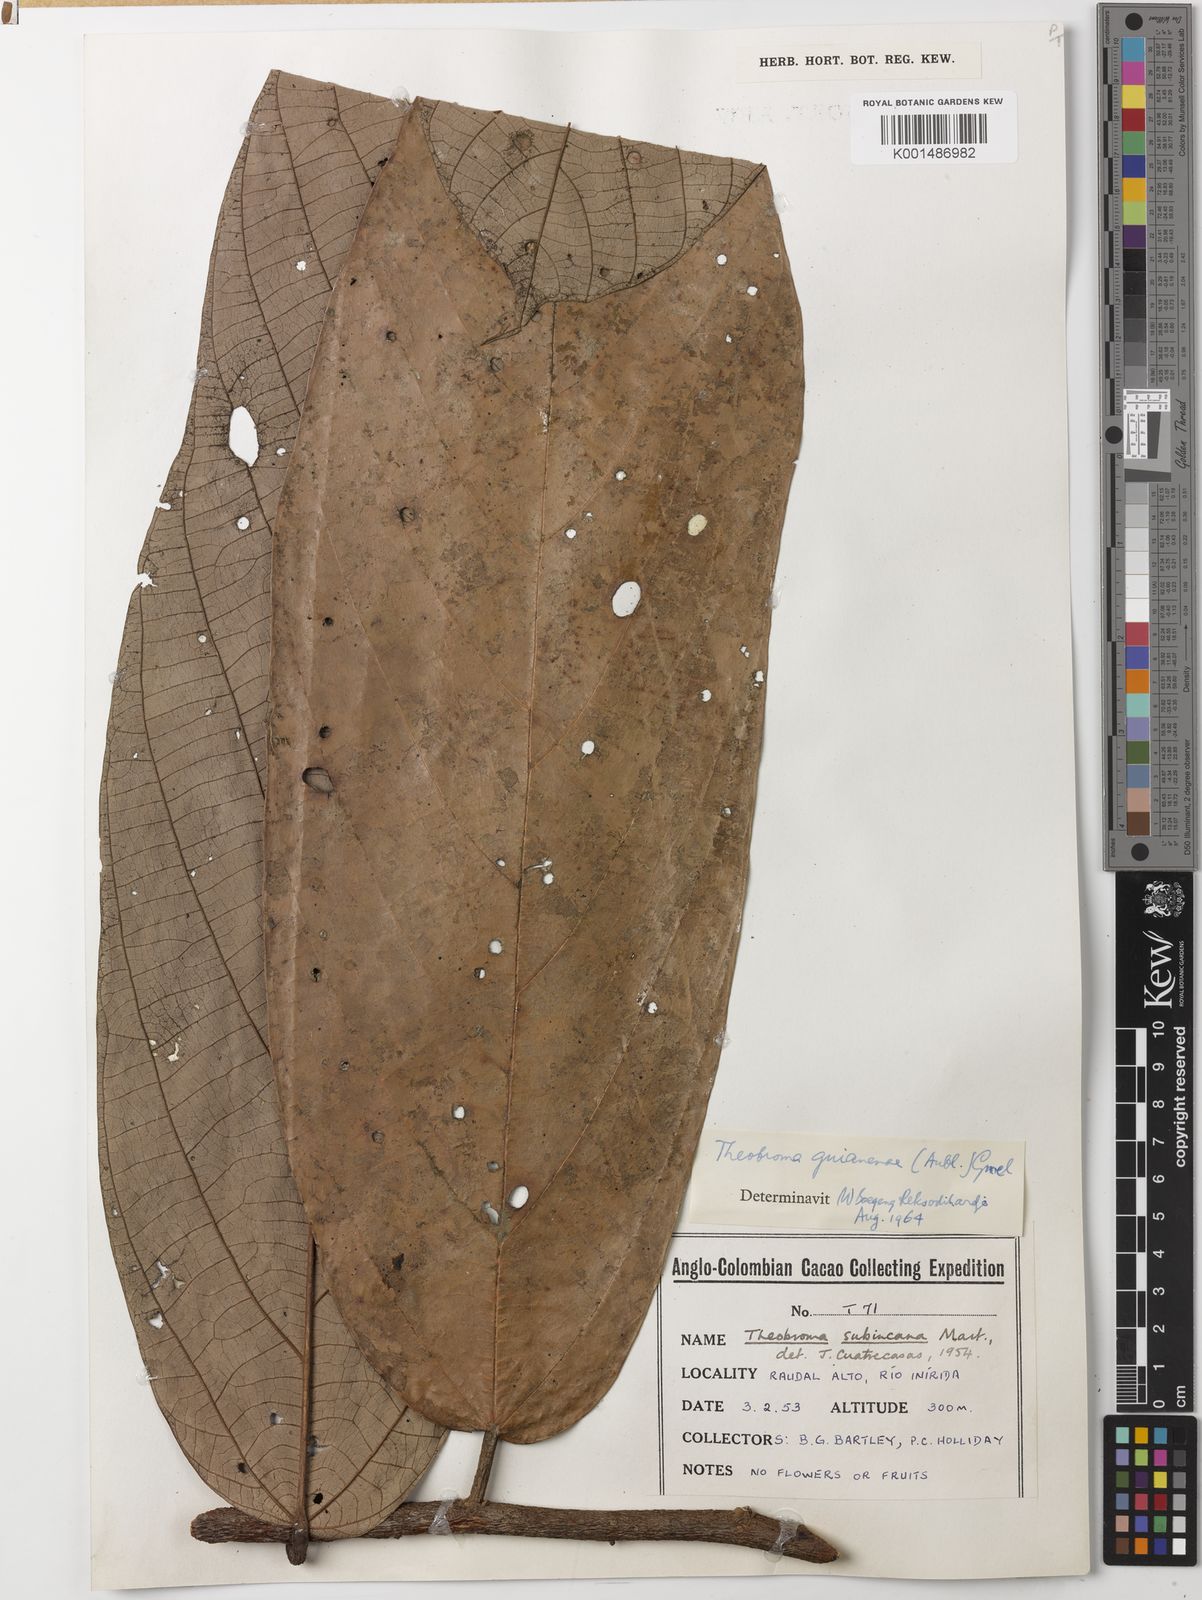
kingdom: Plantae
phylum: Tracheophyta
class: Magnoliopsida
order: Malvales
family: Malvaceae
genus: Theobroma
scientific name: Theobroma subincanum
